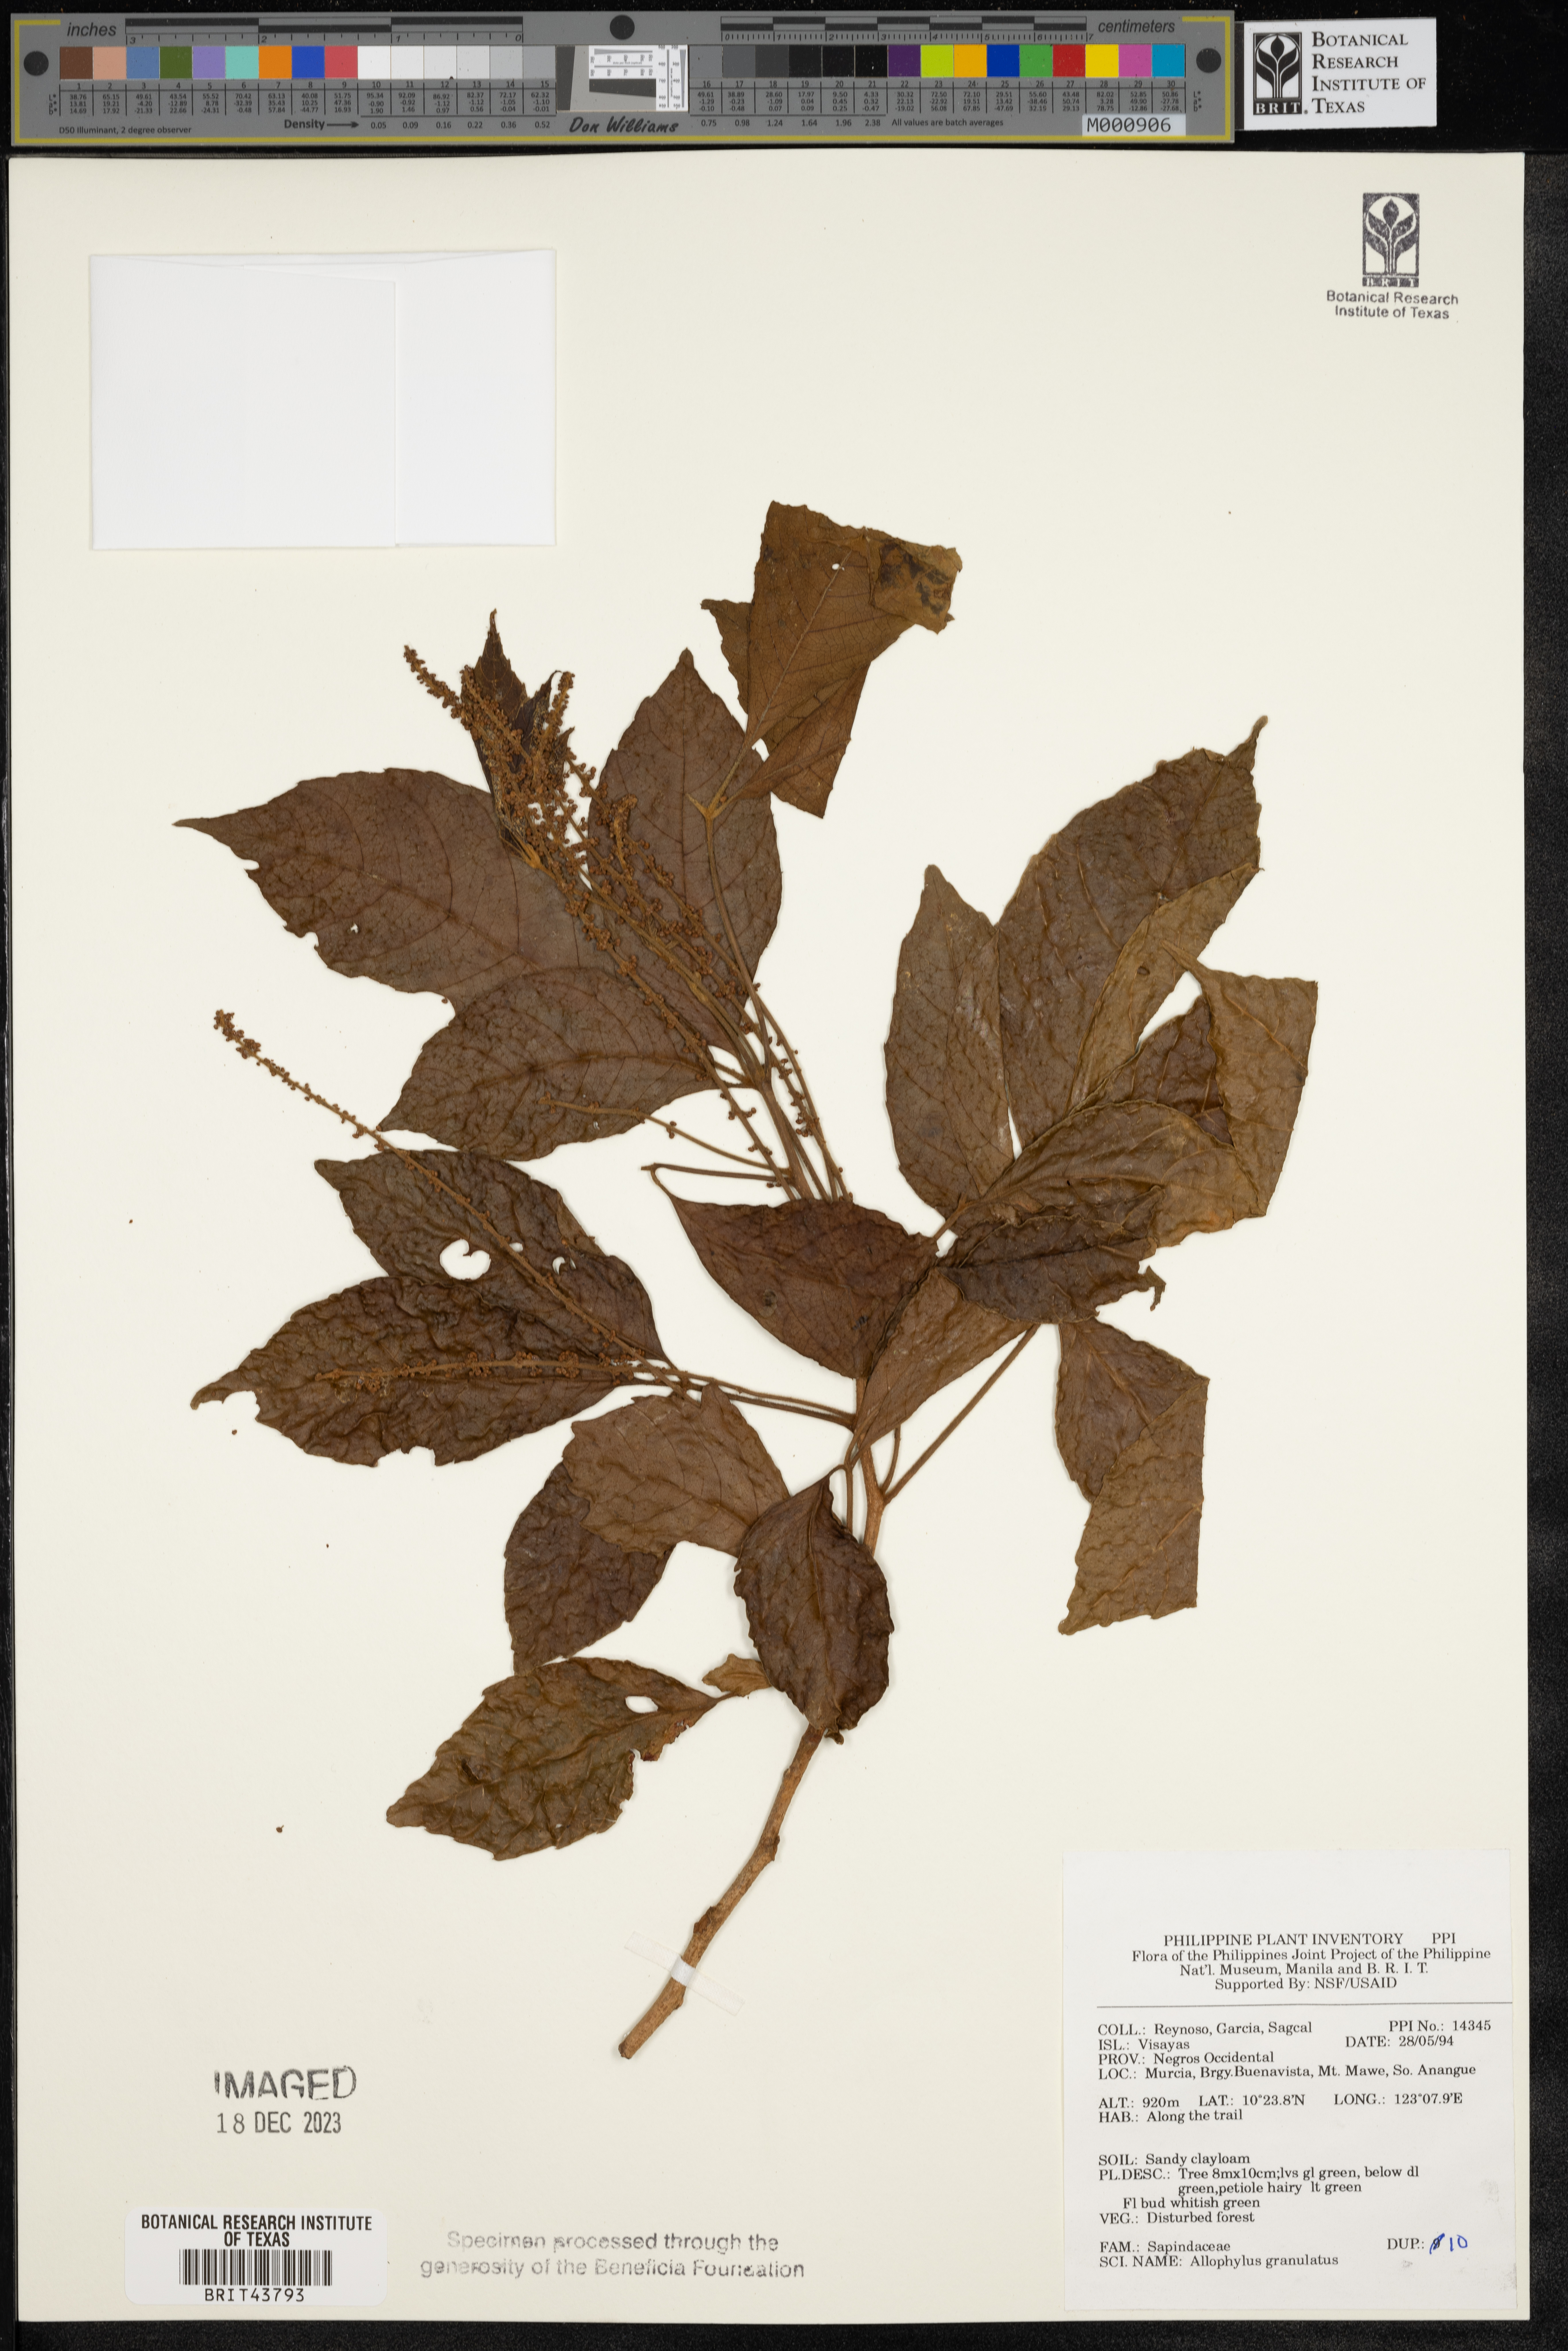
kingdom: Plantae
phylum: Tracheophyta
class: Magnoliopsida
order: Sapindales
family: Sapindaceae
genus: Allophylus
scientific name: Allophylus granulatus
